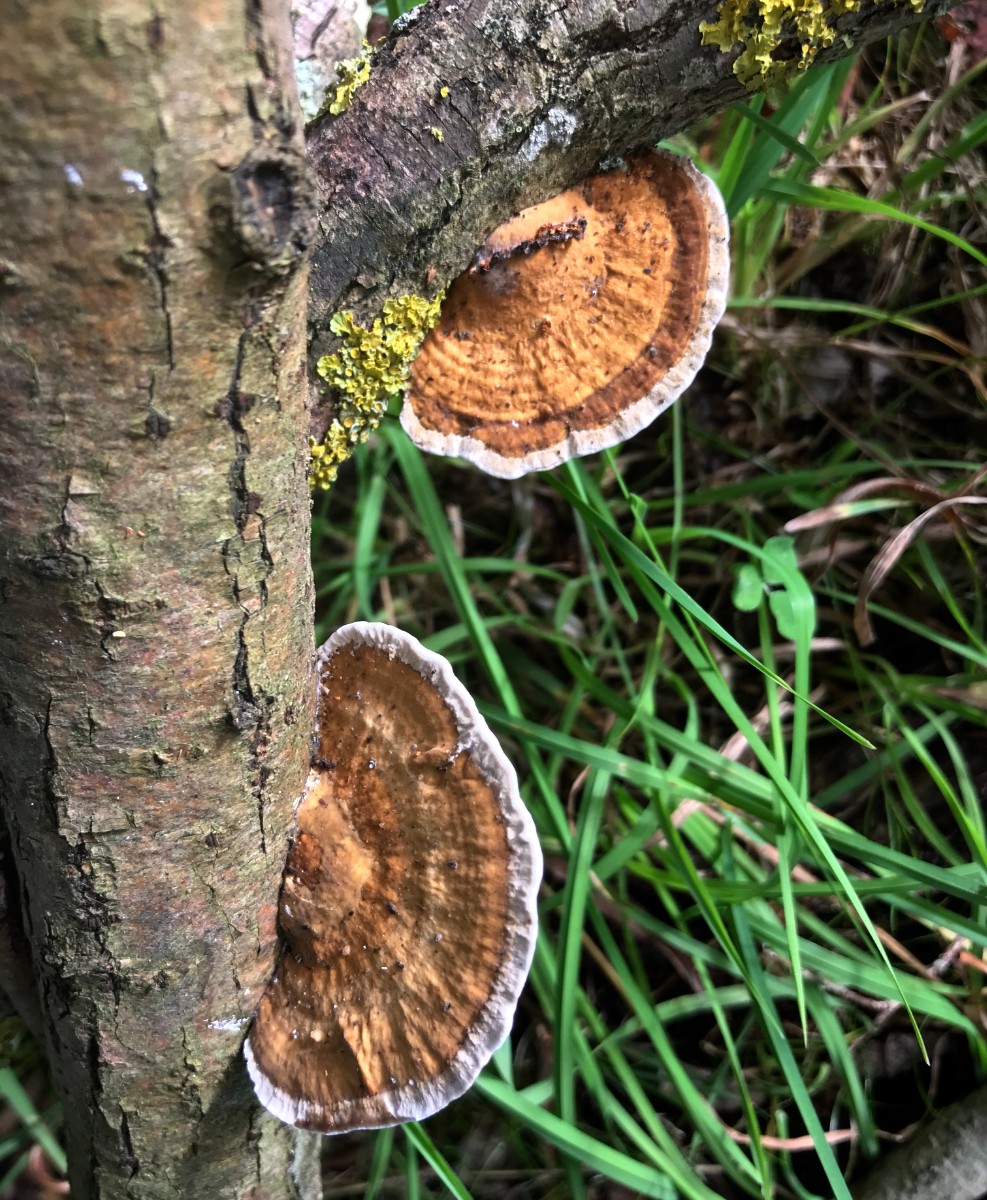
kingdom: Fungi
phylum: Basidiomycota
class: Agaricomycetes
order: Polyporales
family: Polyporaceae
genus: Daedaleopsis
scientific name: Daedaleopsis confragosa
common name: rødmende læderporesvamp
